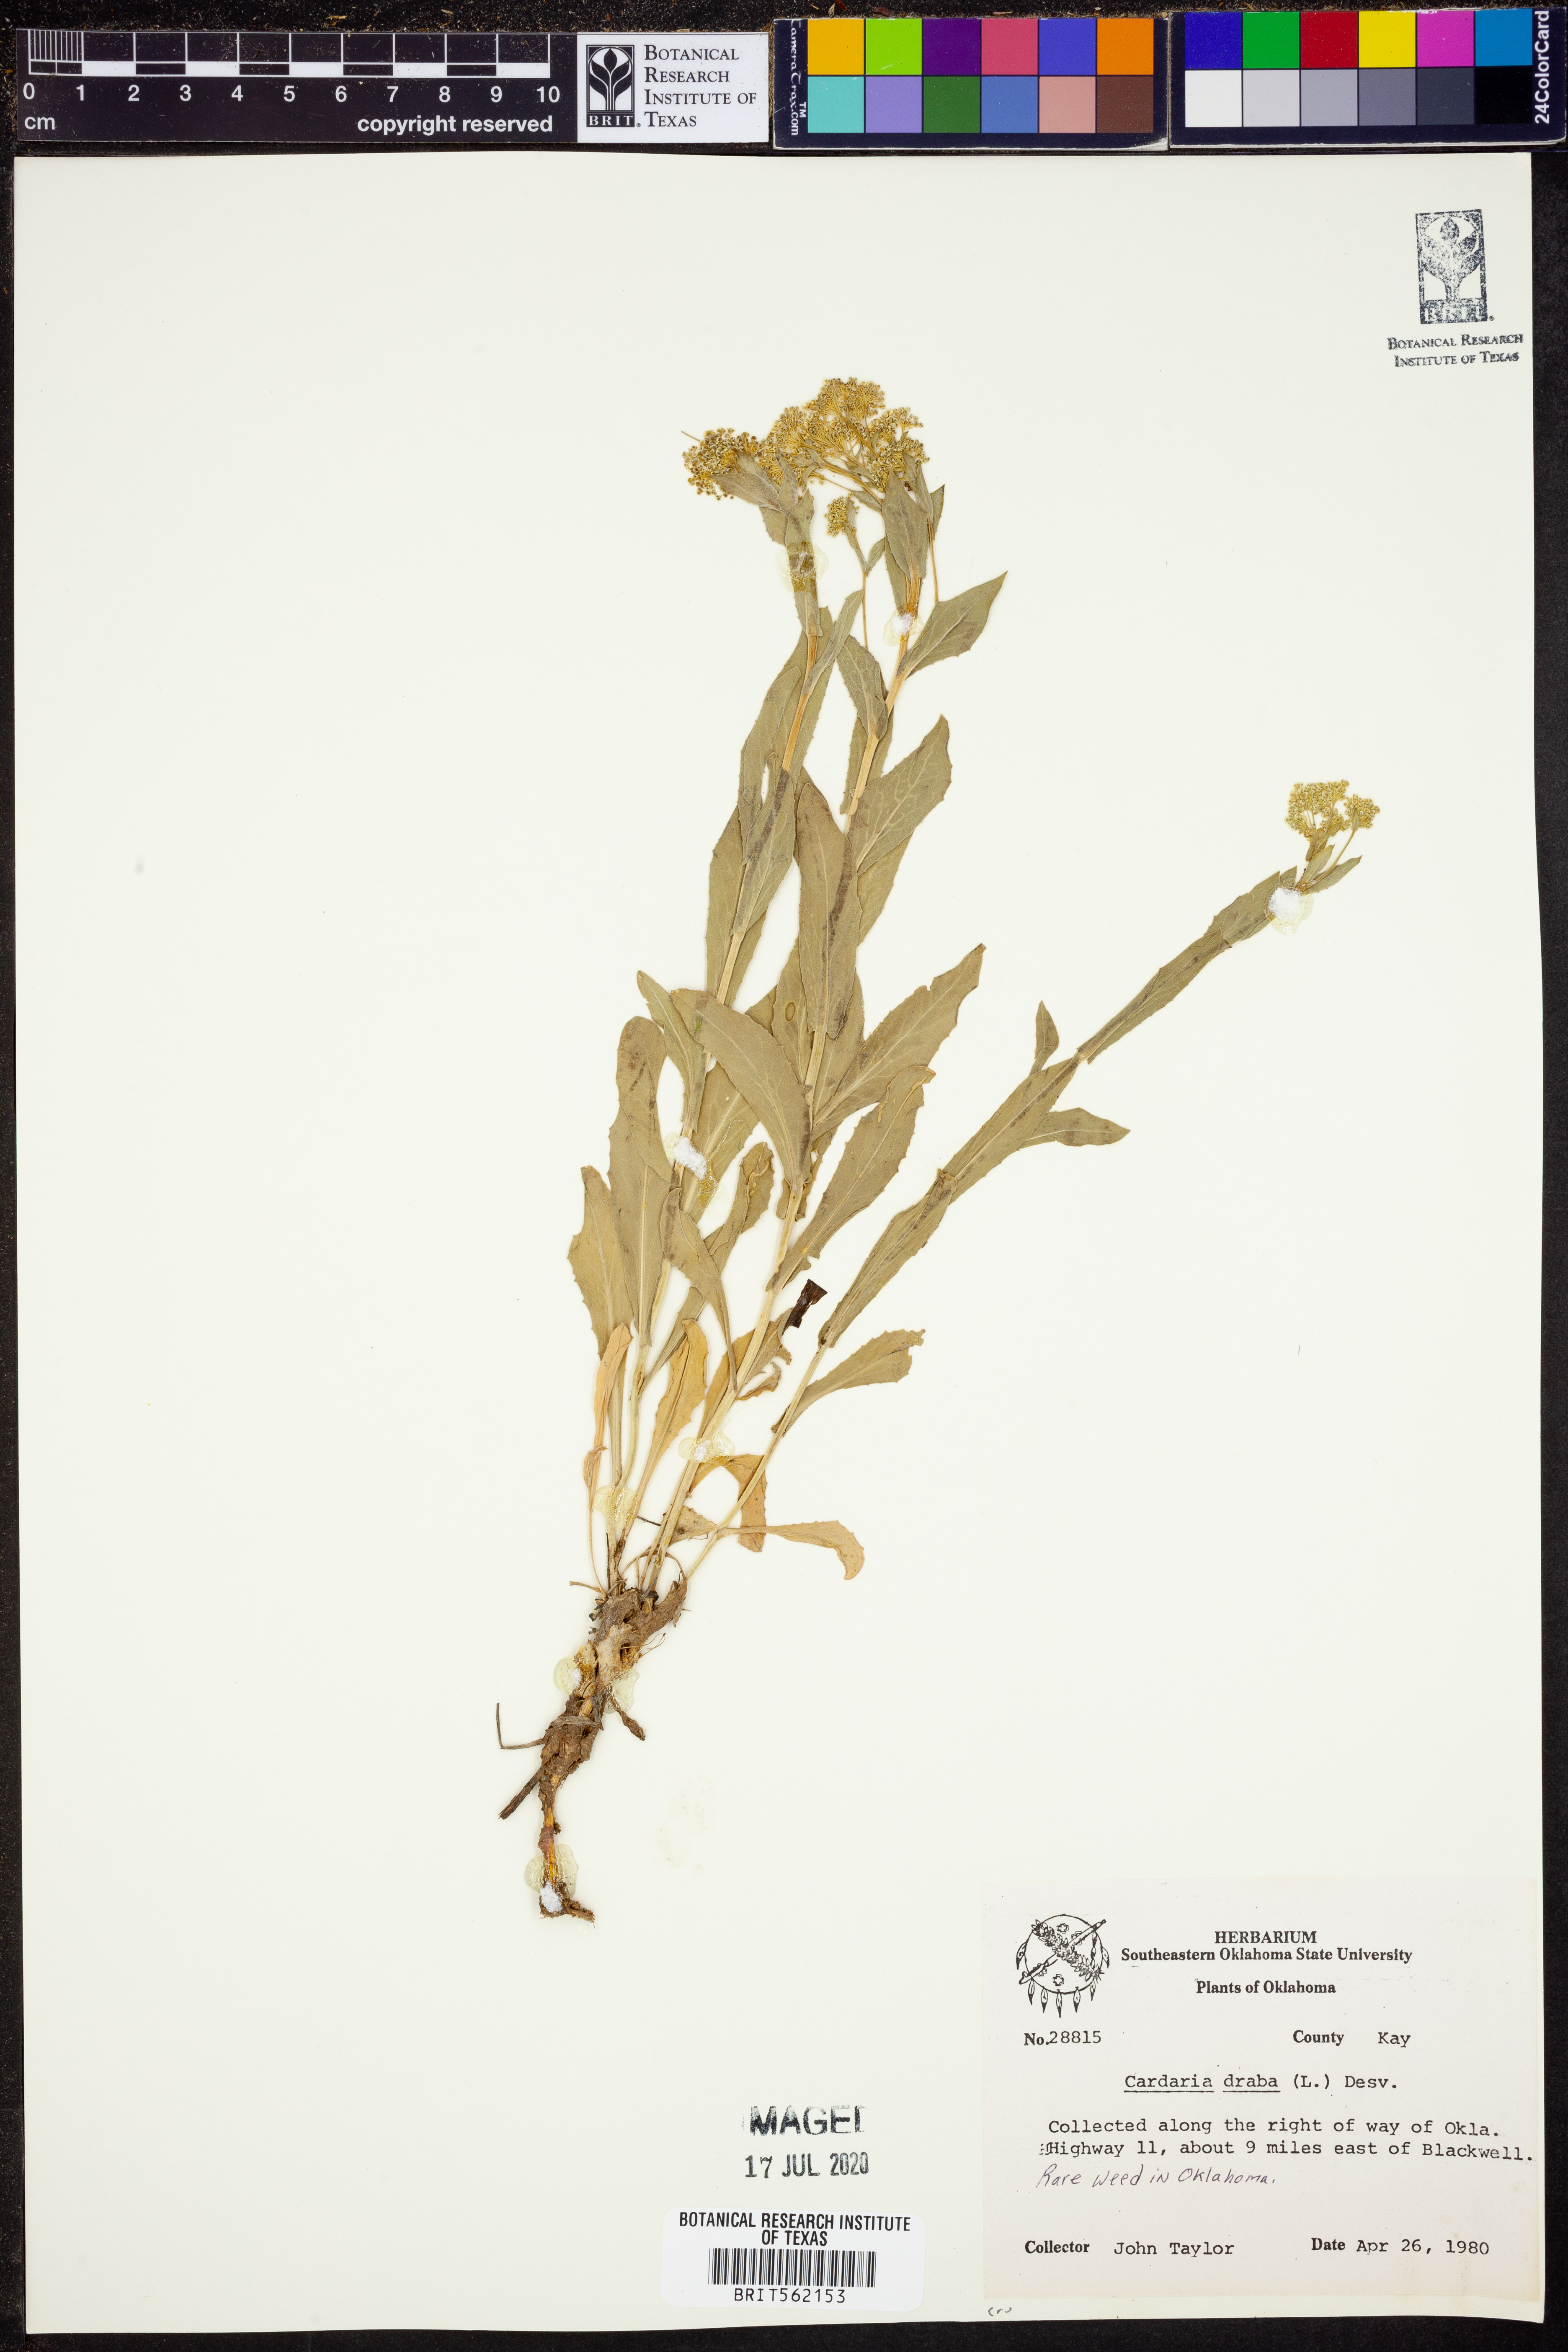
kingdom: Plantae
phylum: Tracheophyta
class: Magnoliopsida
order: Brassicales
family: Brassicaceae
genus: Lepidium
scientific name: Lepidium draba
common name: Hoary cress
